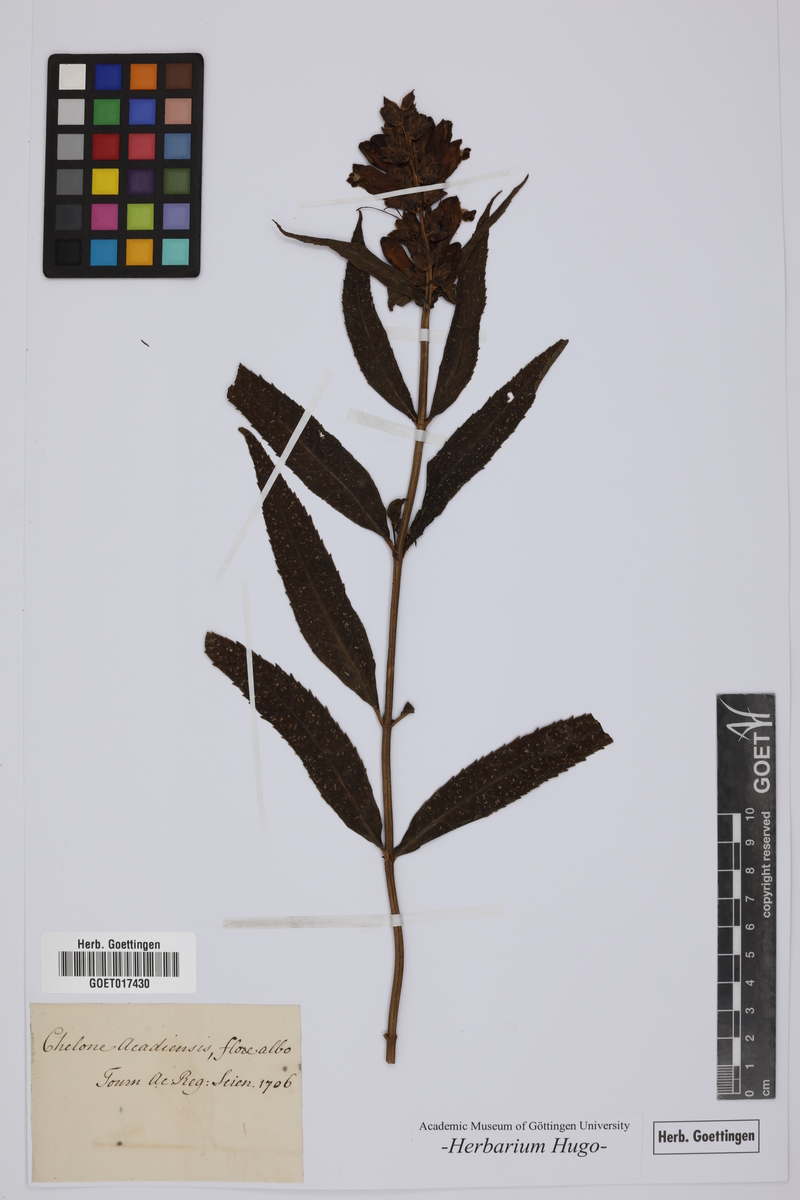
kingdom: Plantae
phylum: Tracheophyta
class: Magnoliopsida
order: Lamiales
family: Plantaginaceae
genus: Chelone
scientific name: Chelone glabra
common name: Snakehead
